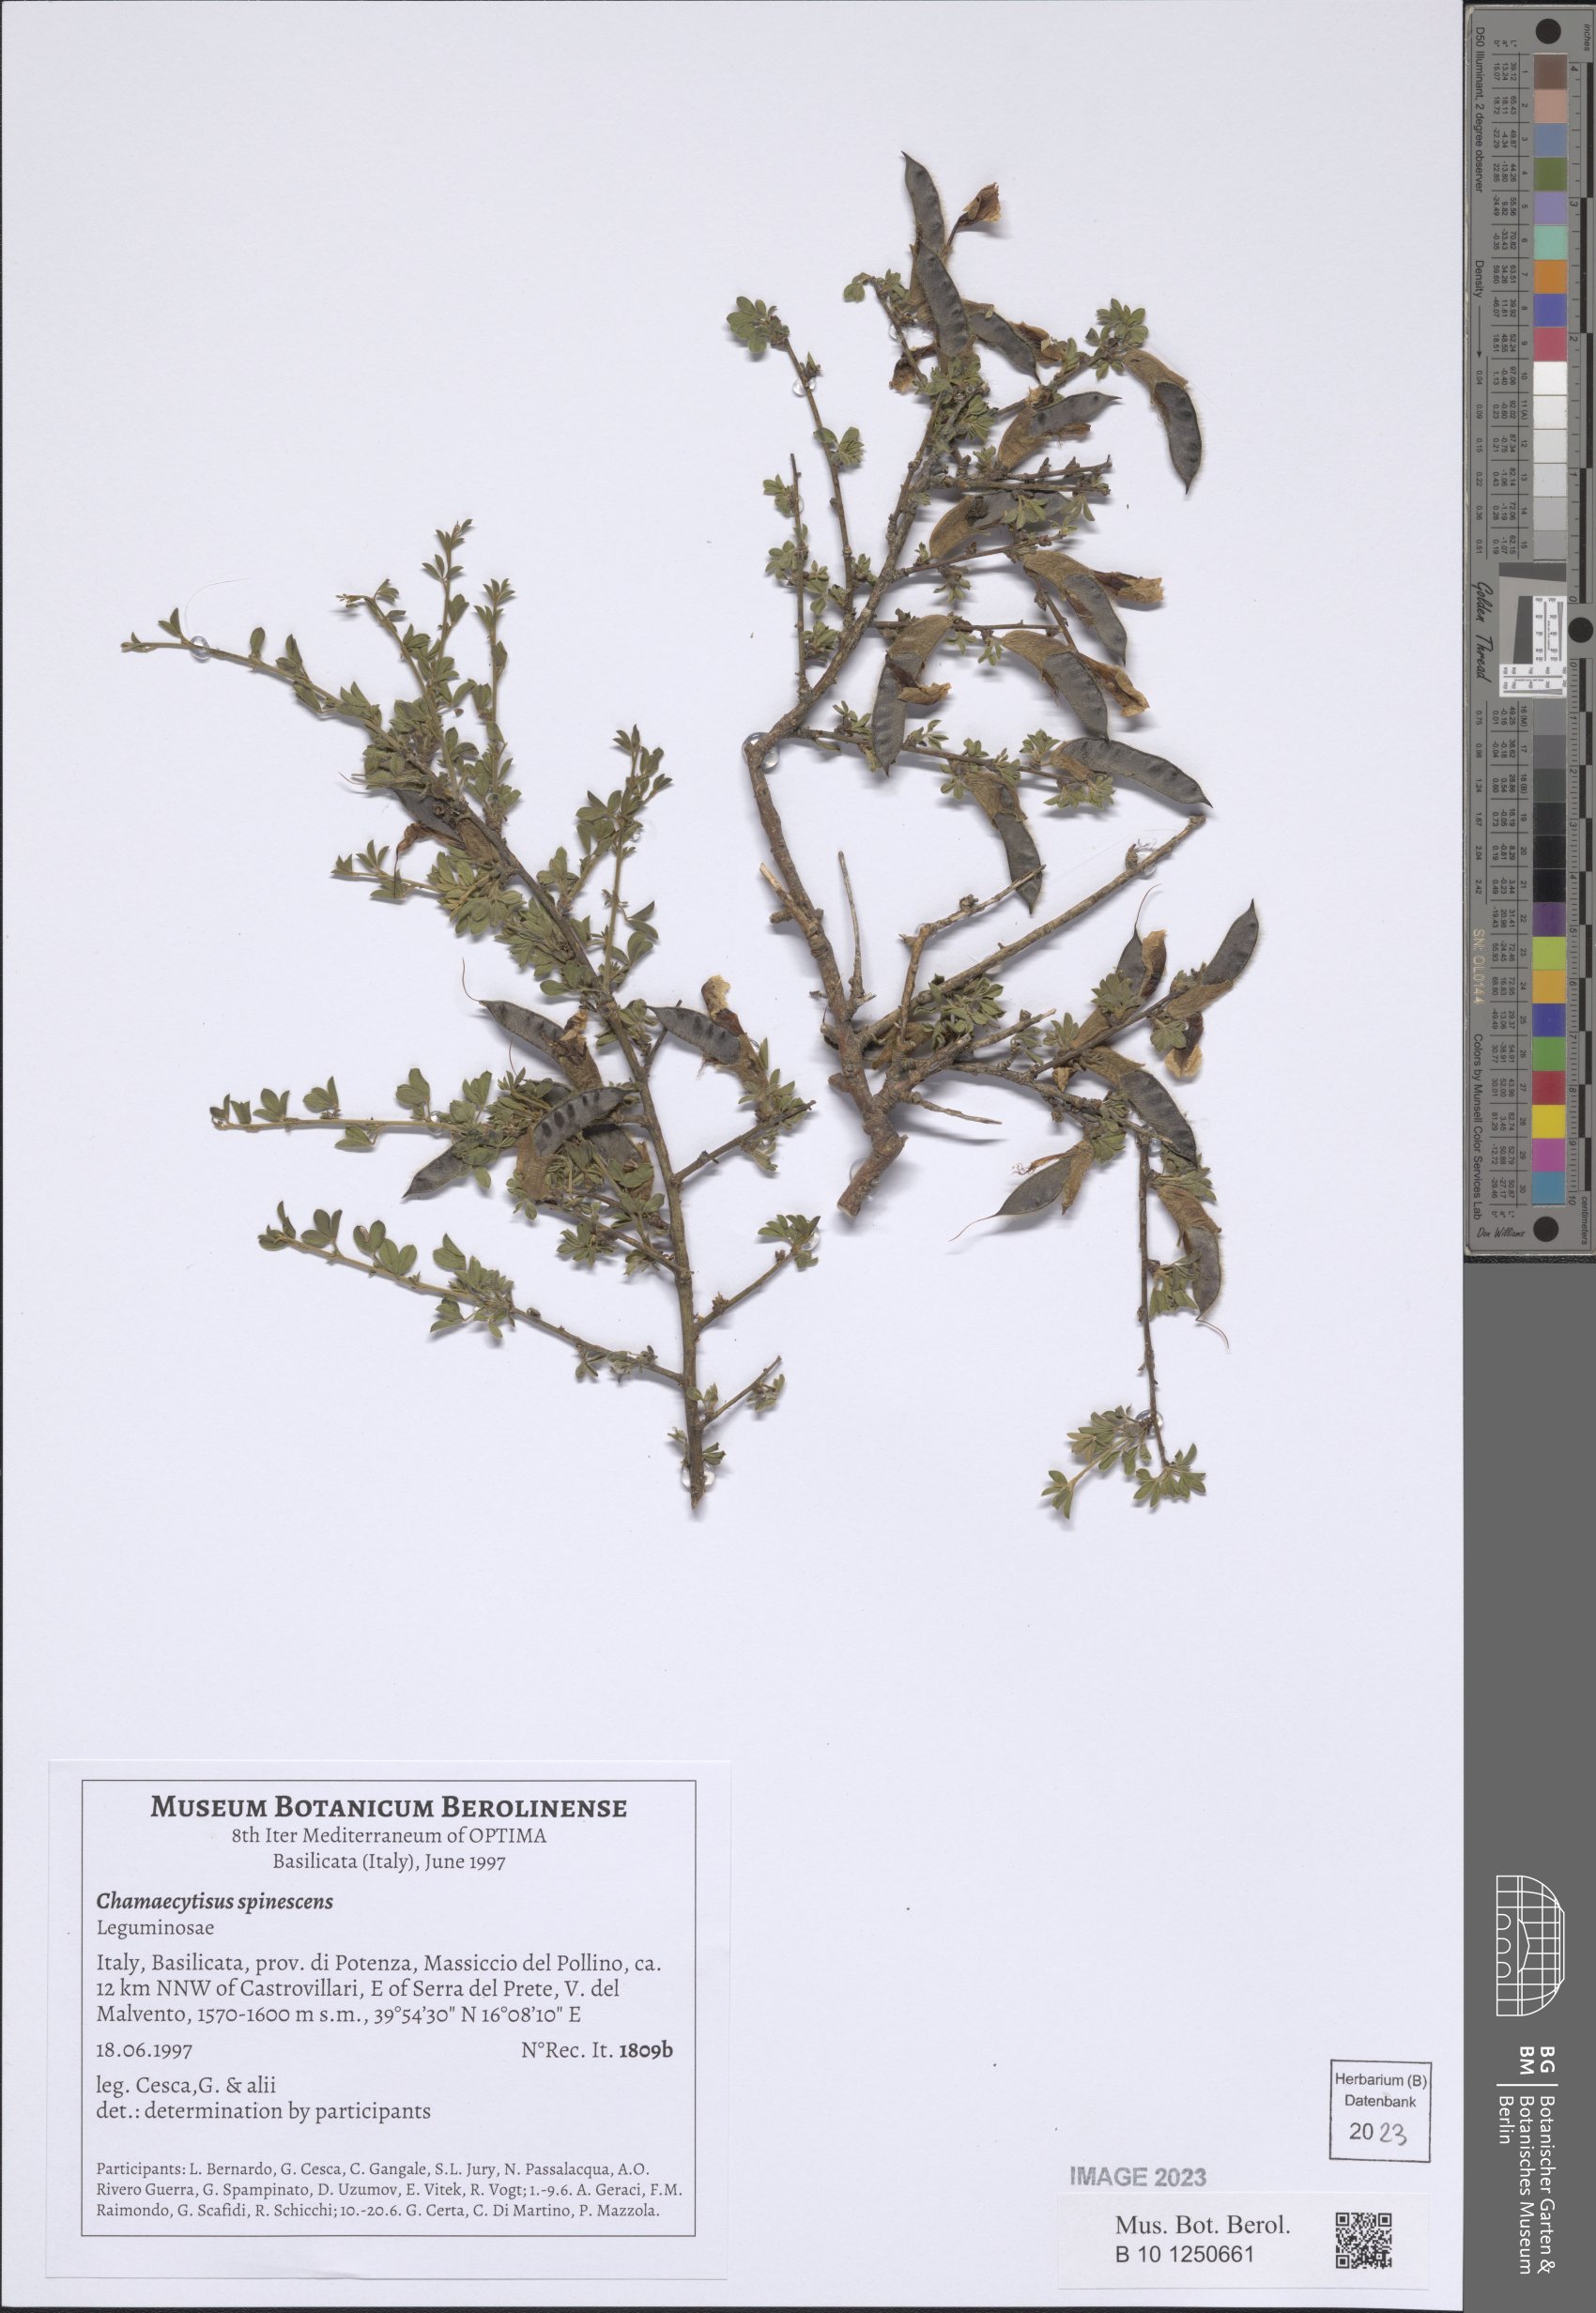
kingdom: Plantae
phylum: Tracheophyta
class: Magnoliopsida
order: Fabales
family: Fabaceae
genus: Chamaecytisus
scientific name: Chamaecytisus spinescens
